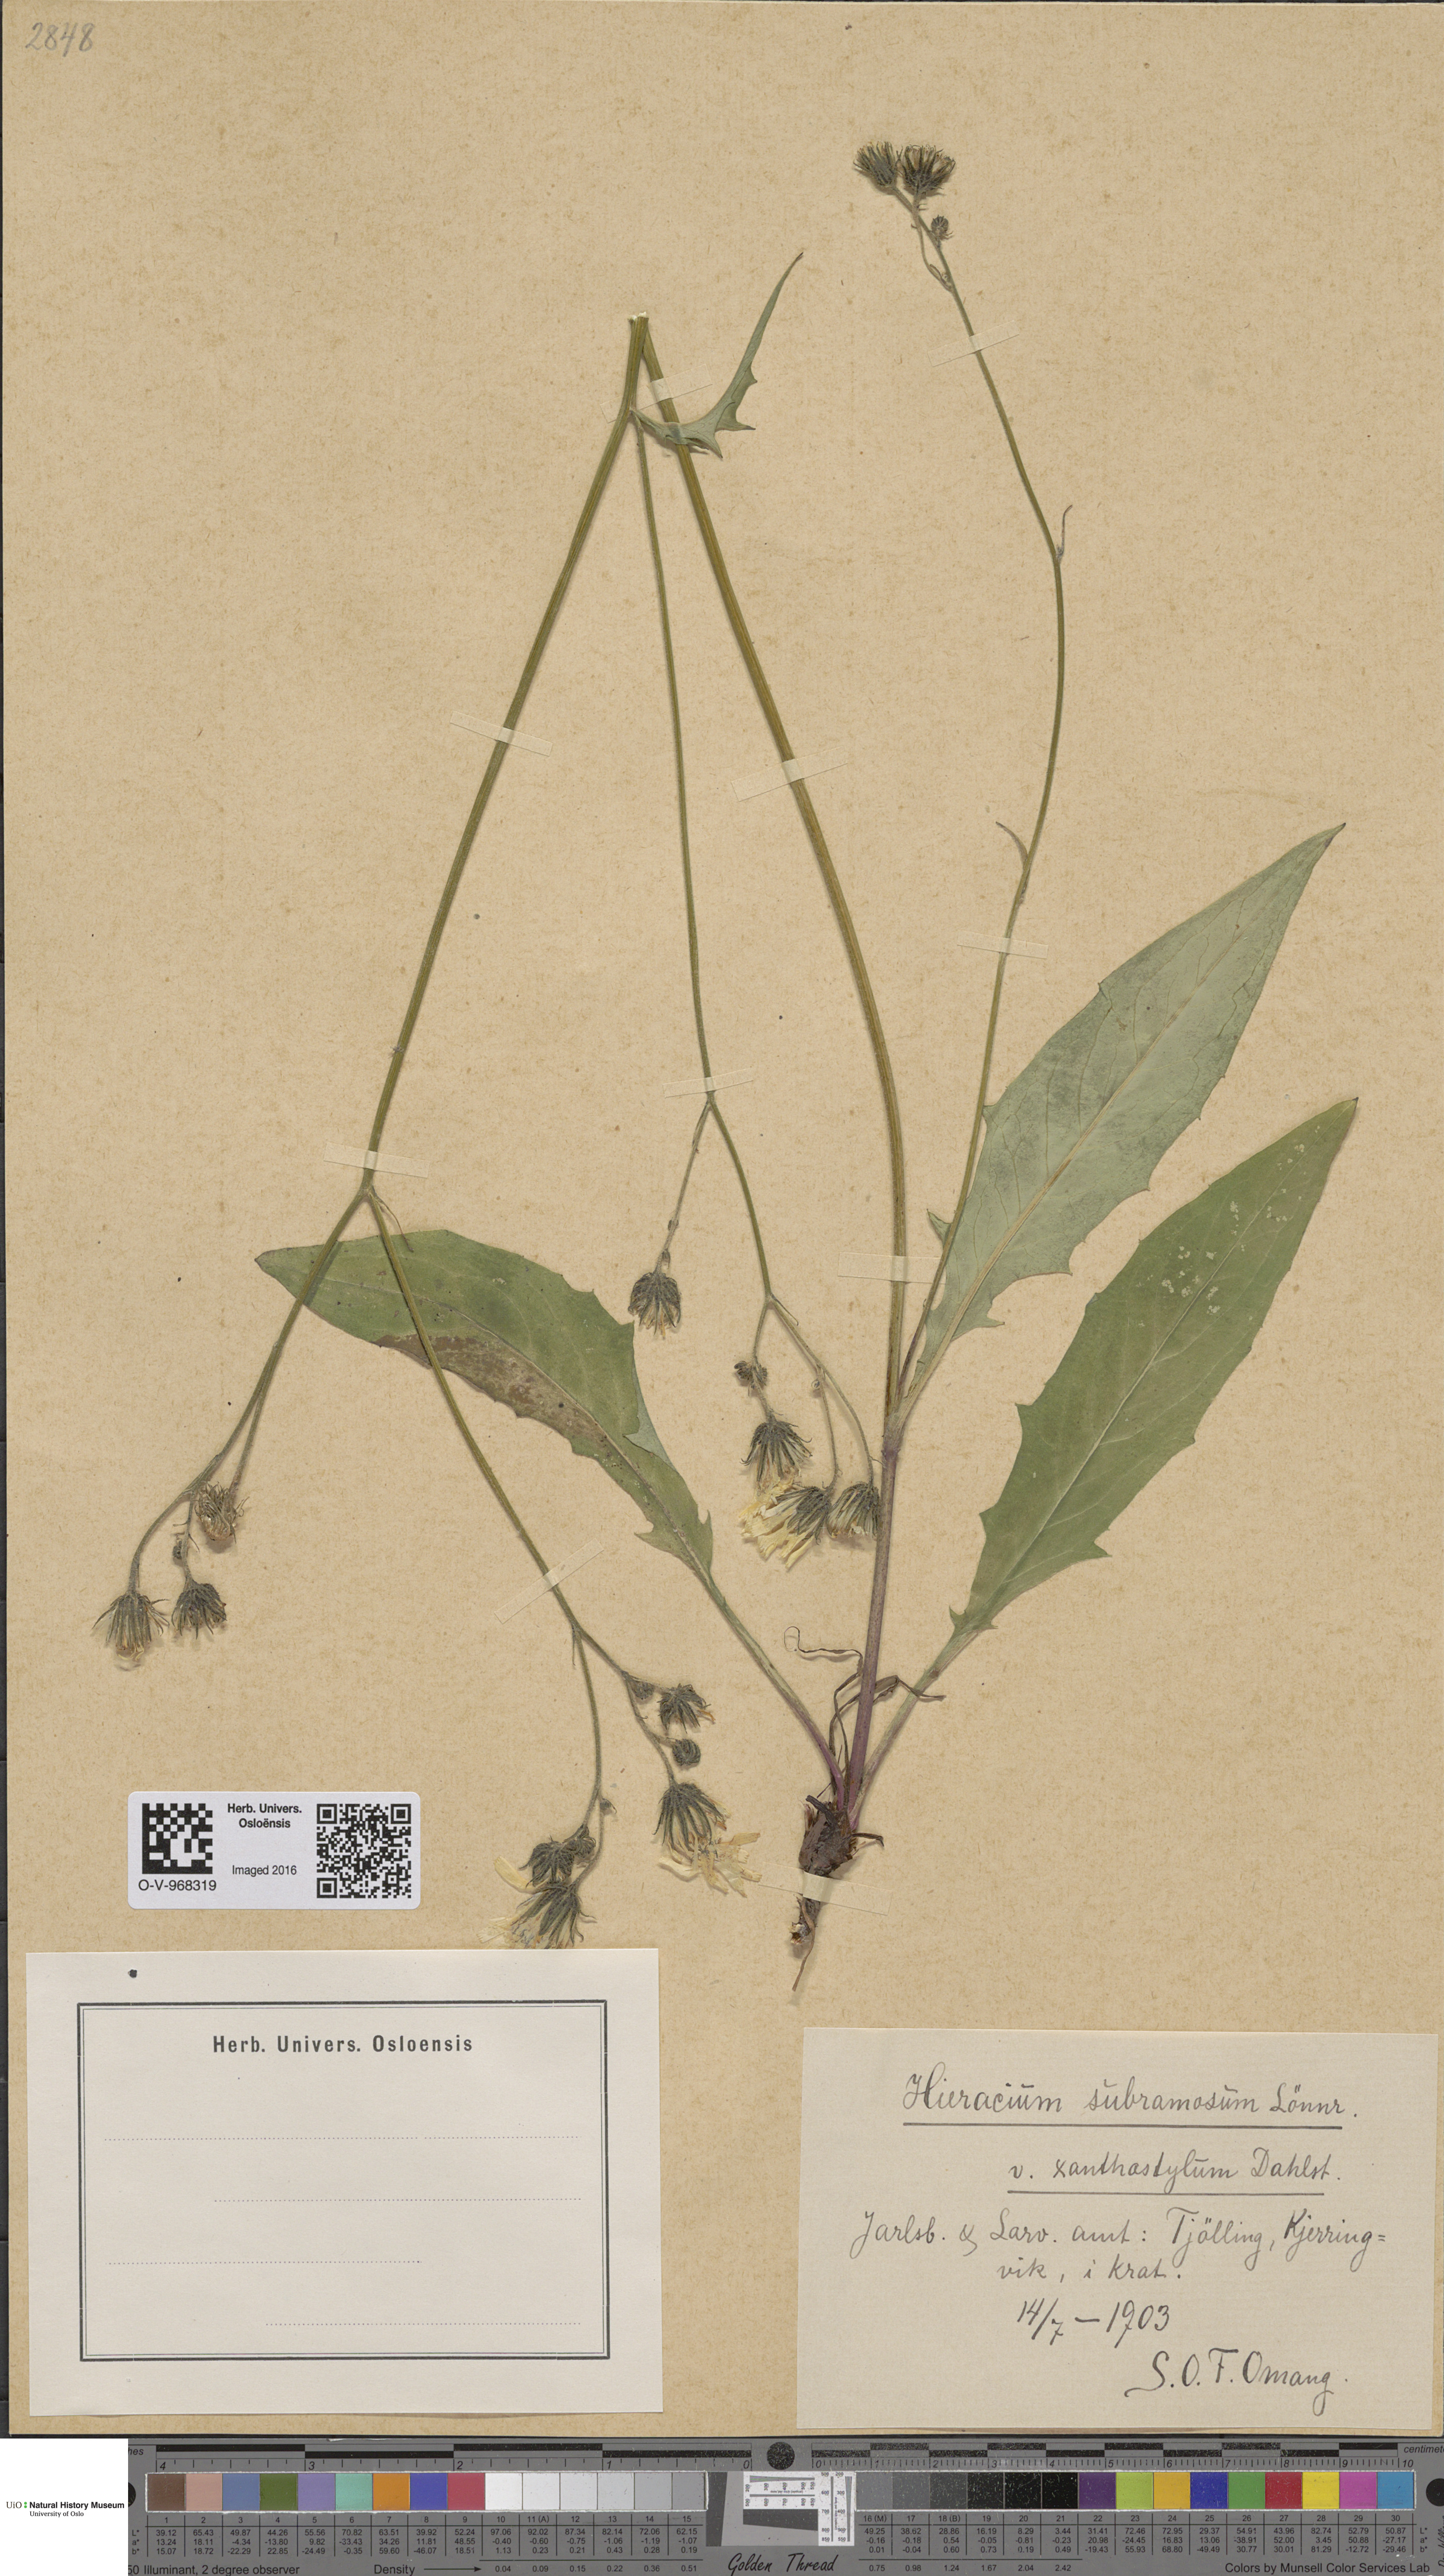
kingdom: Plantae
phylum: Tracheophyta
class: Magnoliopsida
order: Asterales
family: Asteraceae
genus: Hieracium
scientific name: Hieracium subramosum
